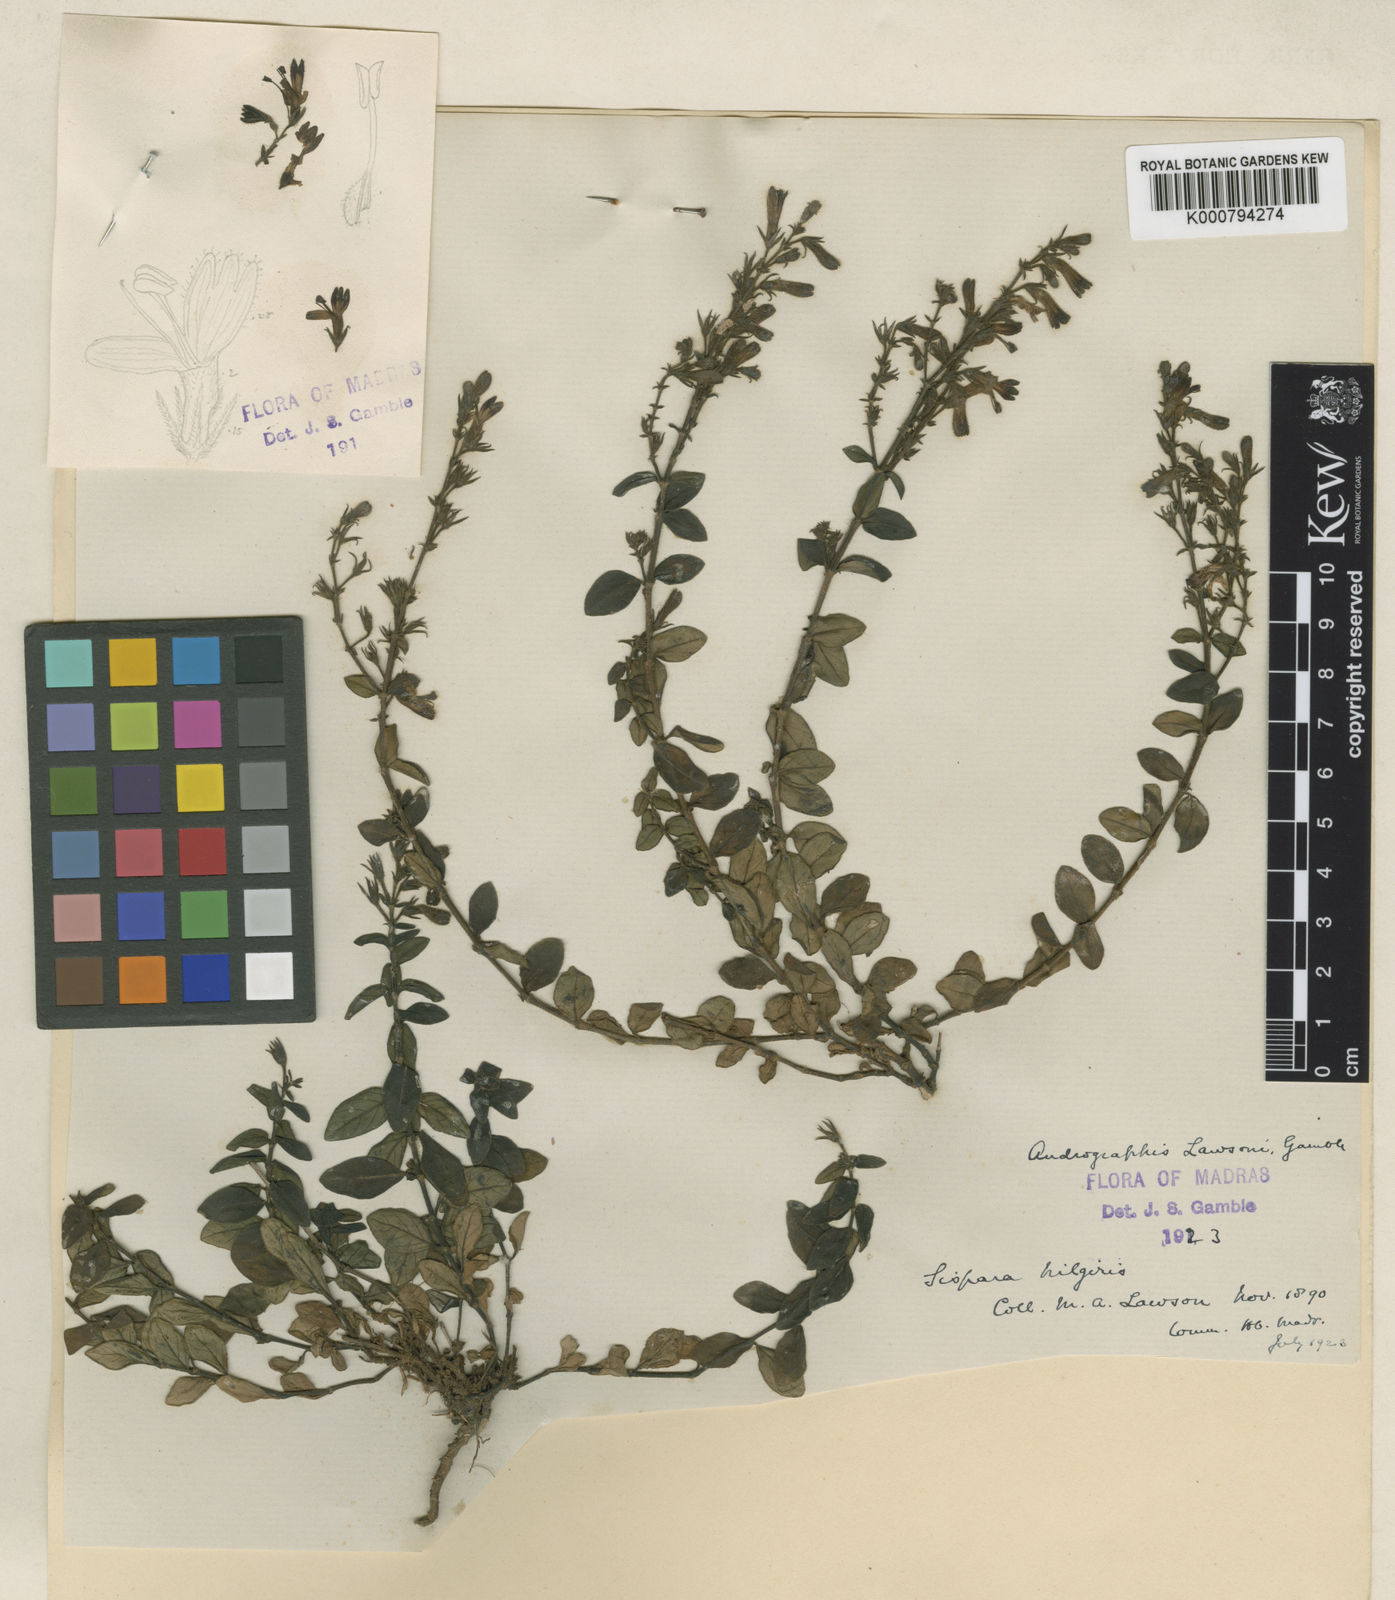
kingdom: Plantae
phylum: Tracheophyta
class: Magnoliopsida
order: Lamiales
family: Acanthaceae
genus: Andrographis
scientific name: Andrographis lawsonii
